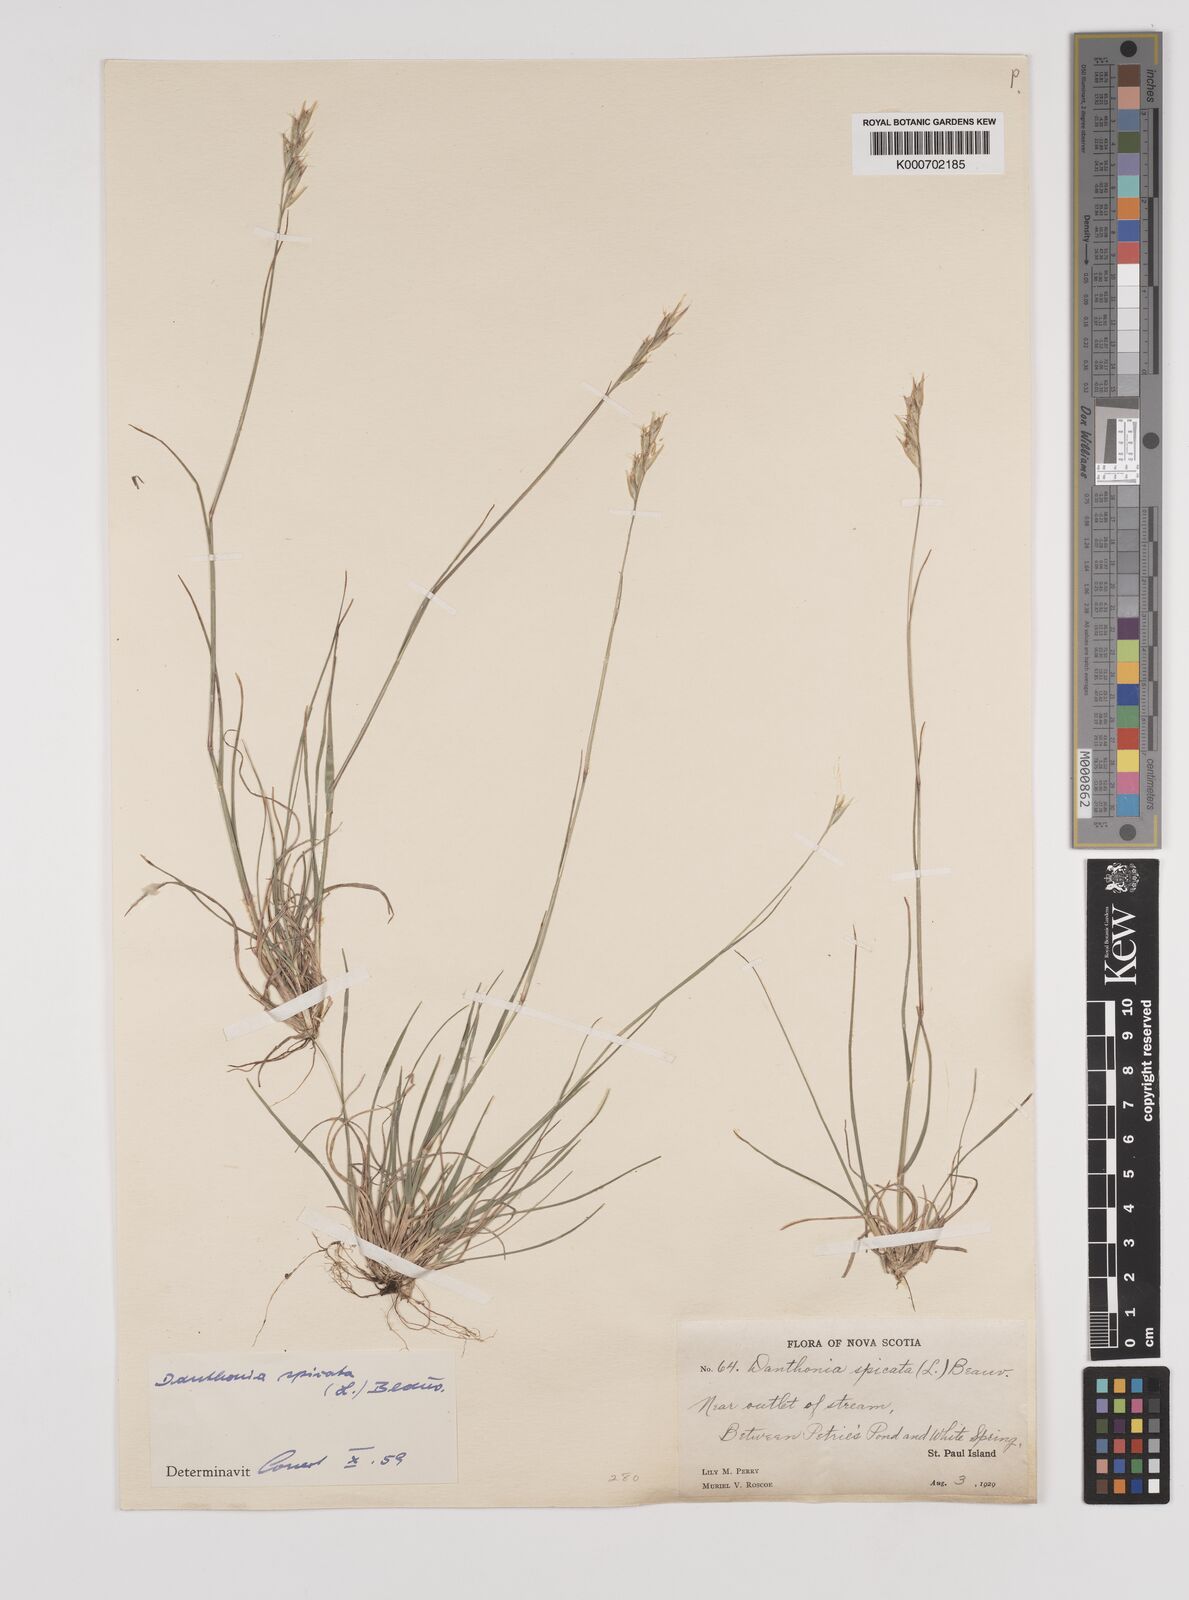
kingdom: Plantae
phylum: Tracheophyta
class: Liliopsida
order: Poales
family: Poaceae
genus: Danthonia
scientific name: Danthonia spicata
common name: Common wild oatgrass
